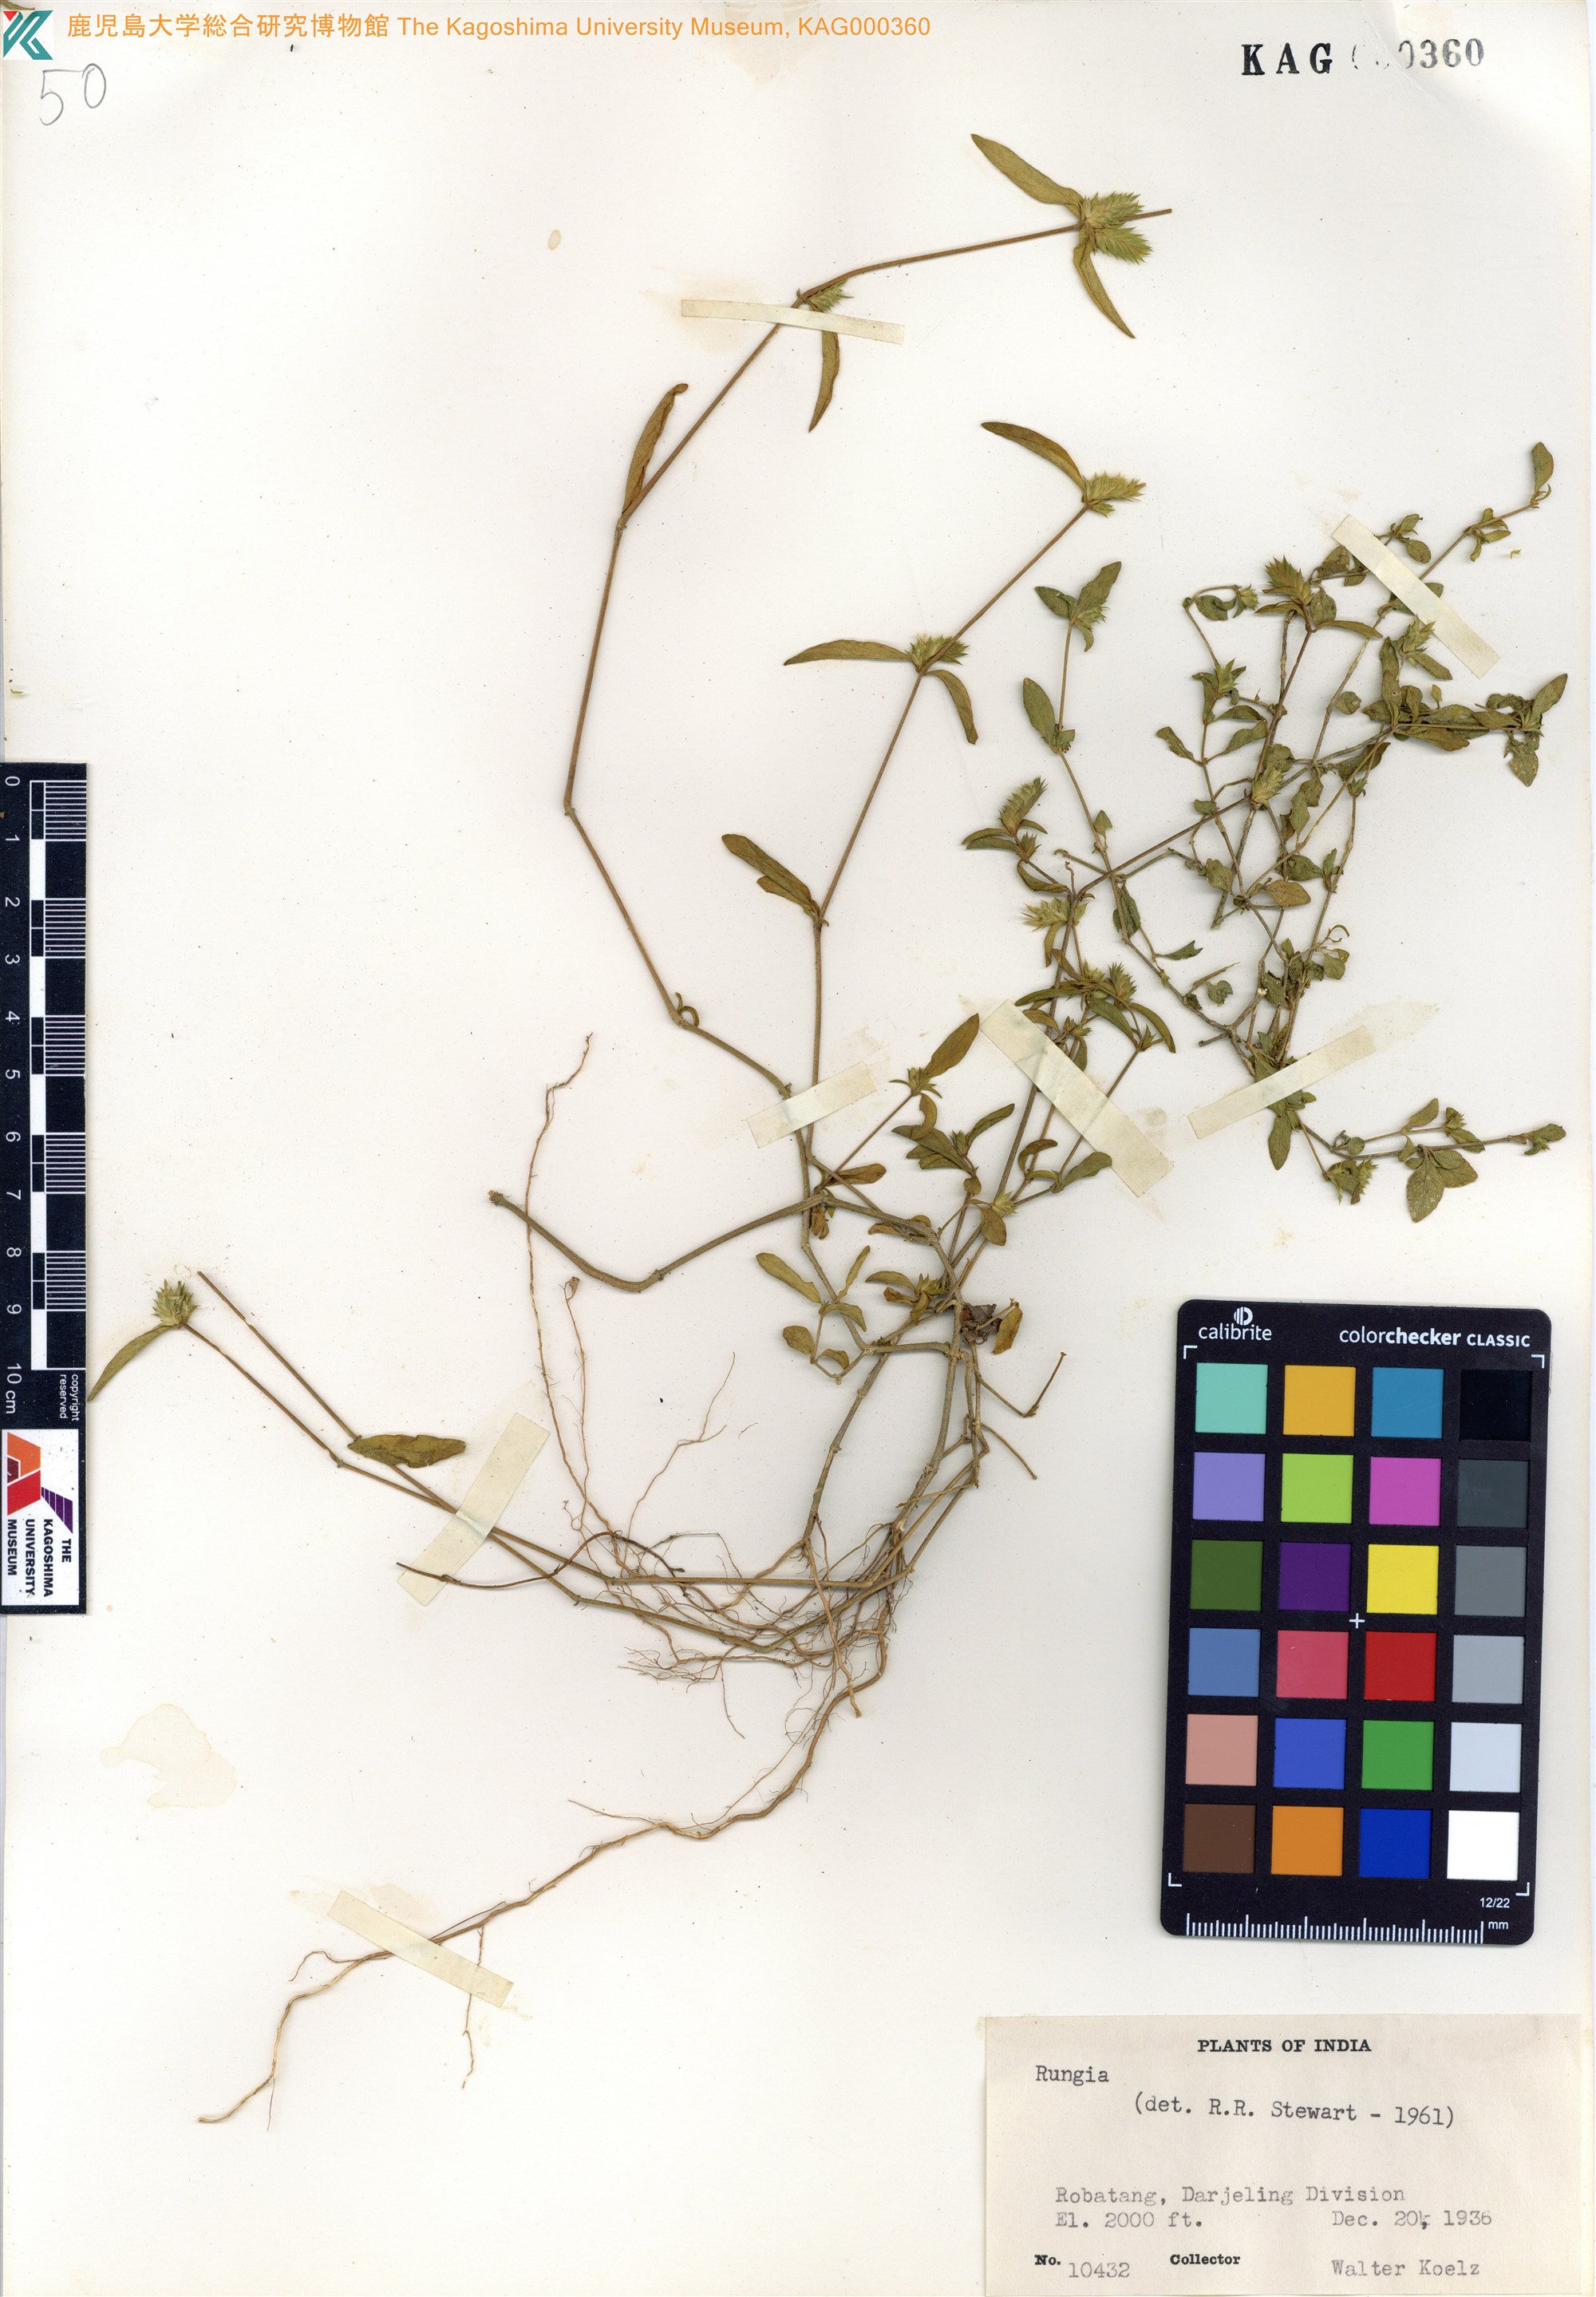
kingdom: Plantae
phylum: Tracheophyta
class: Magnoliopsida
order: Lamiales
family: Acanthaceae
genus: Rungia
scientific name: Rungia
